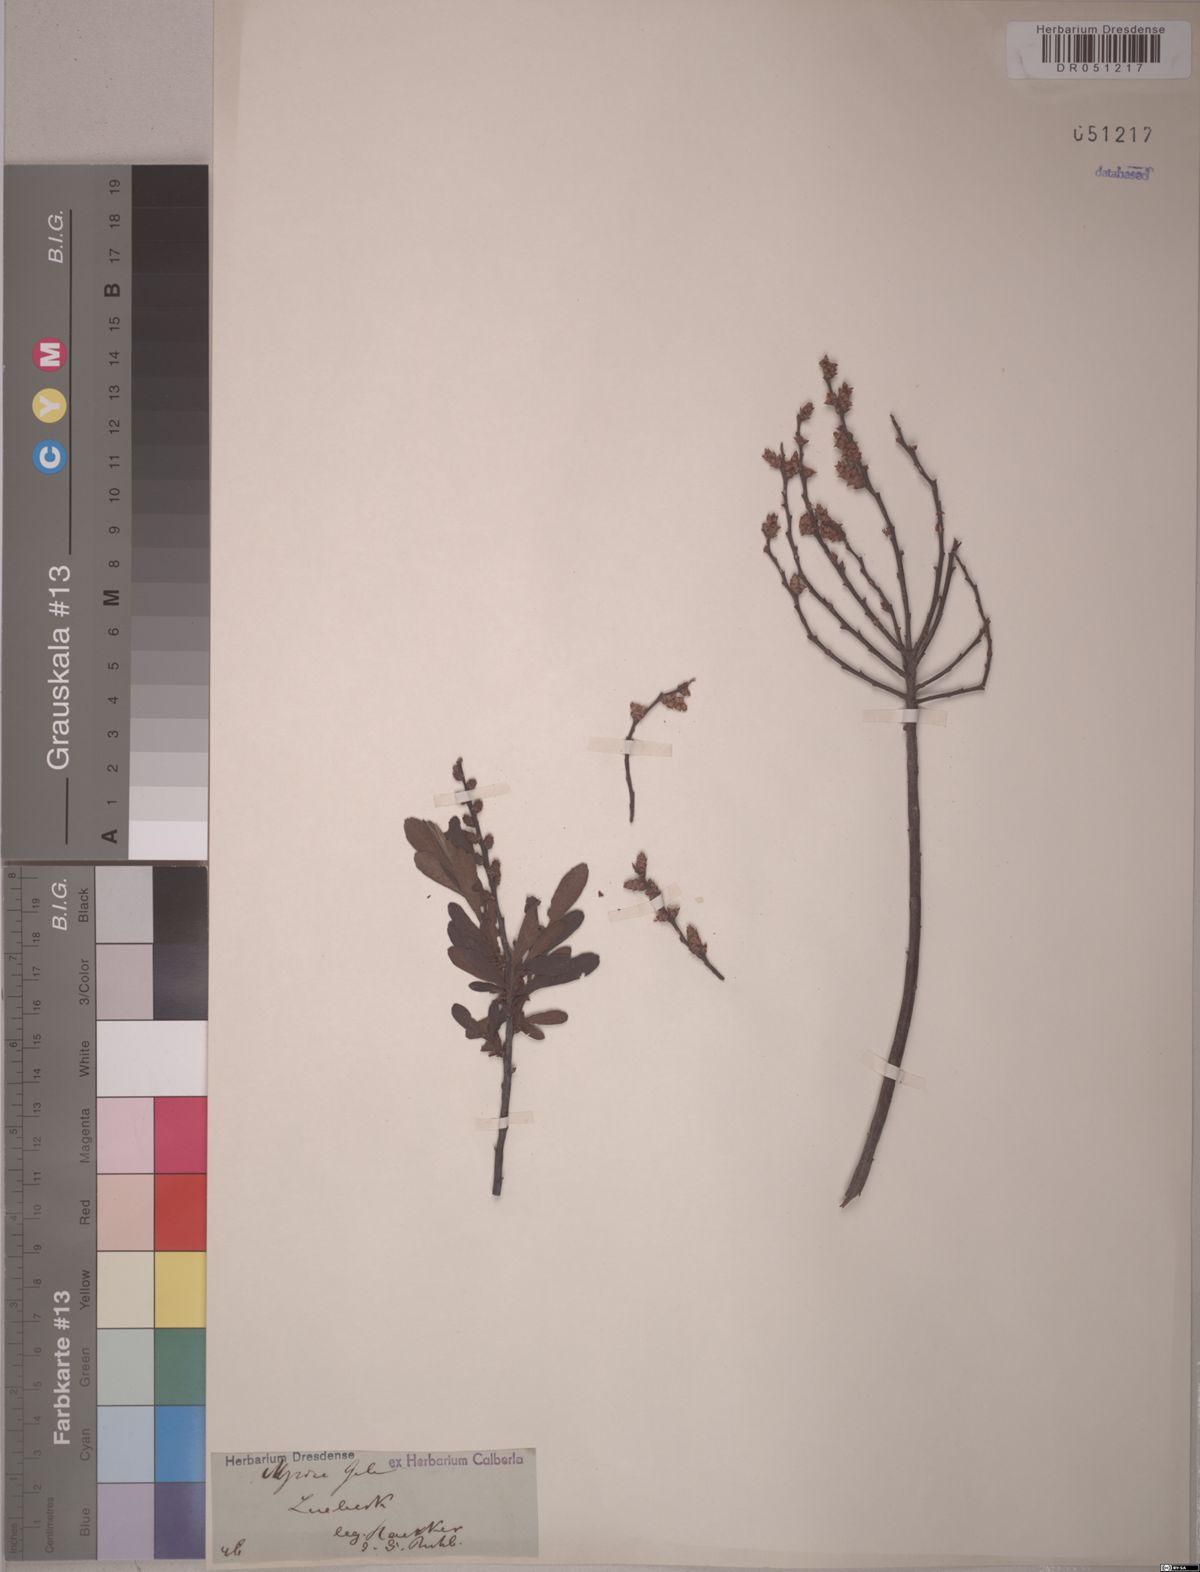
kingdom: Plantae
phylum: Tracheophyta
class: Magnoliopsida
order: Fagales
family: Myricaceae
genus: Myrica
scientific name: Myrica gale
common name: Sweet gale
